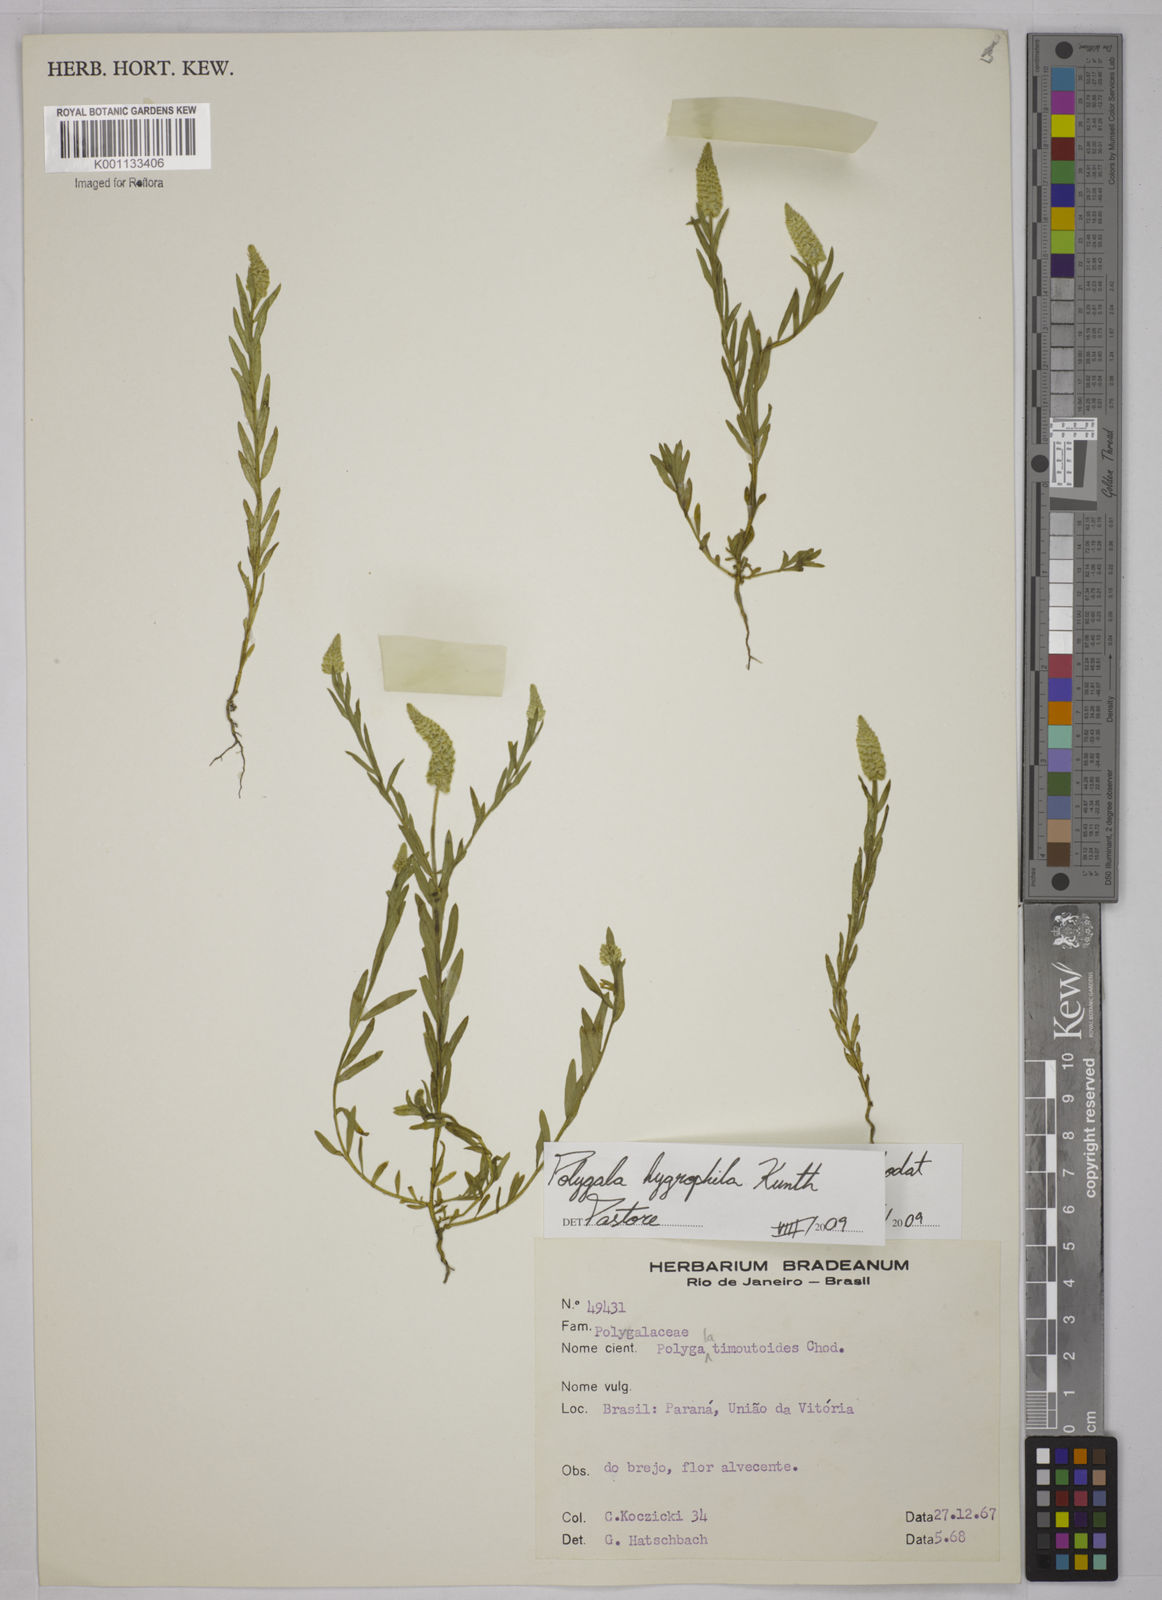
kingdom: Plantae
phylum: Tracheophyta
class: Magnoliopsida
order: Fabales
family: Polygalaceae
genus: Polygala
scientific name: Polygala hygrophila
